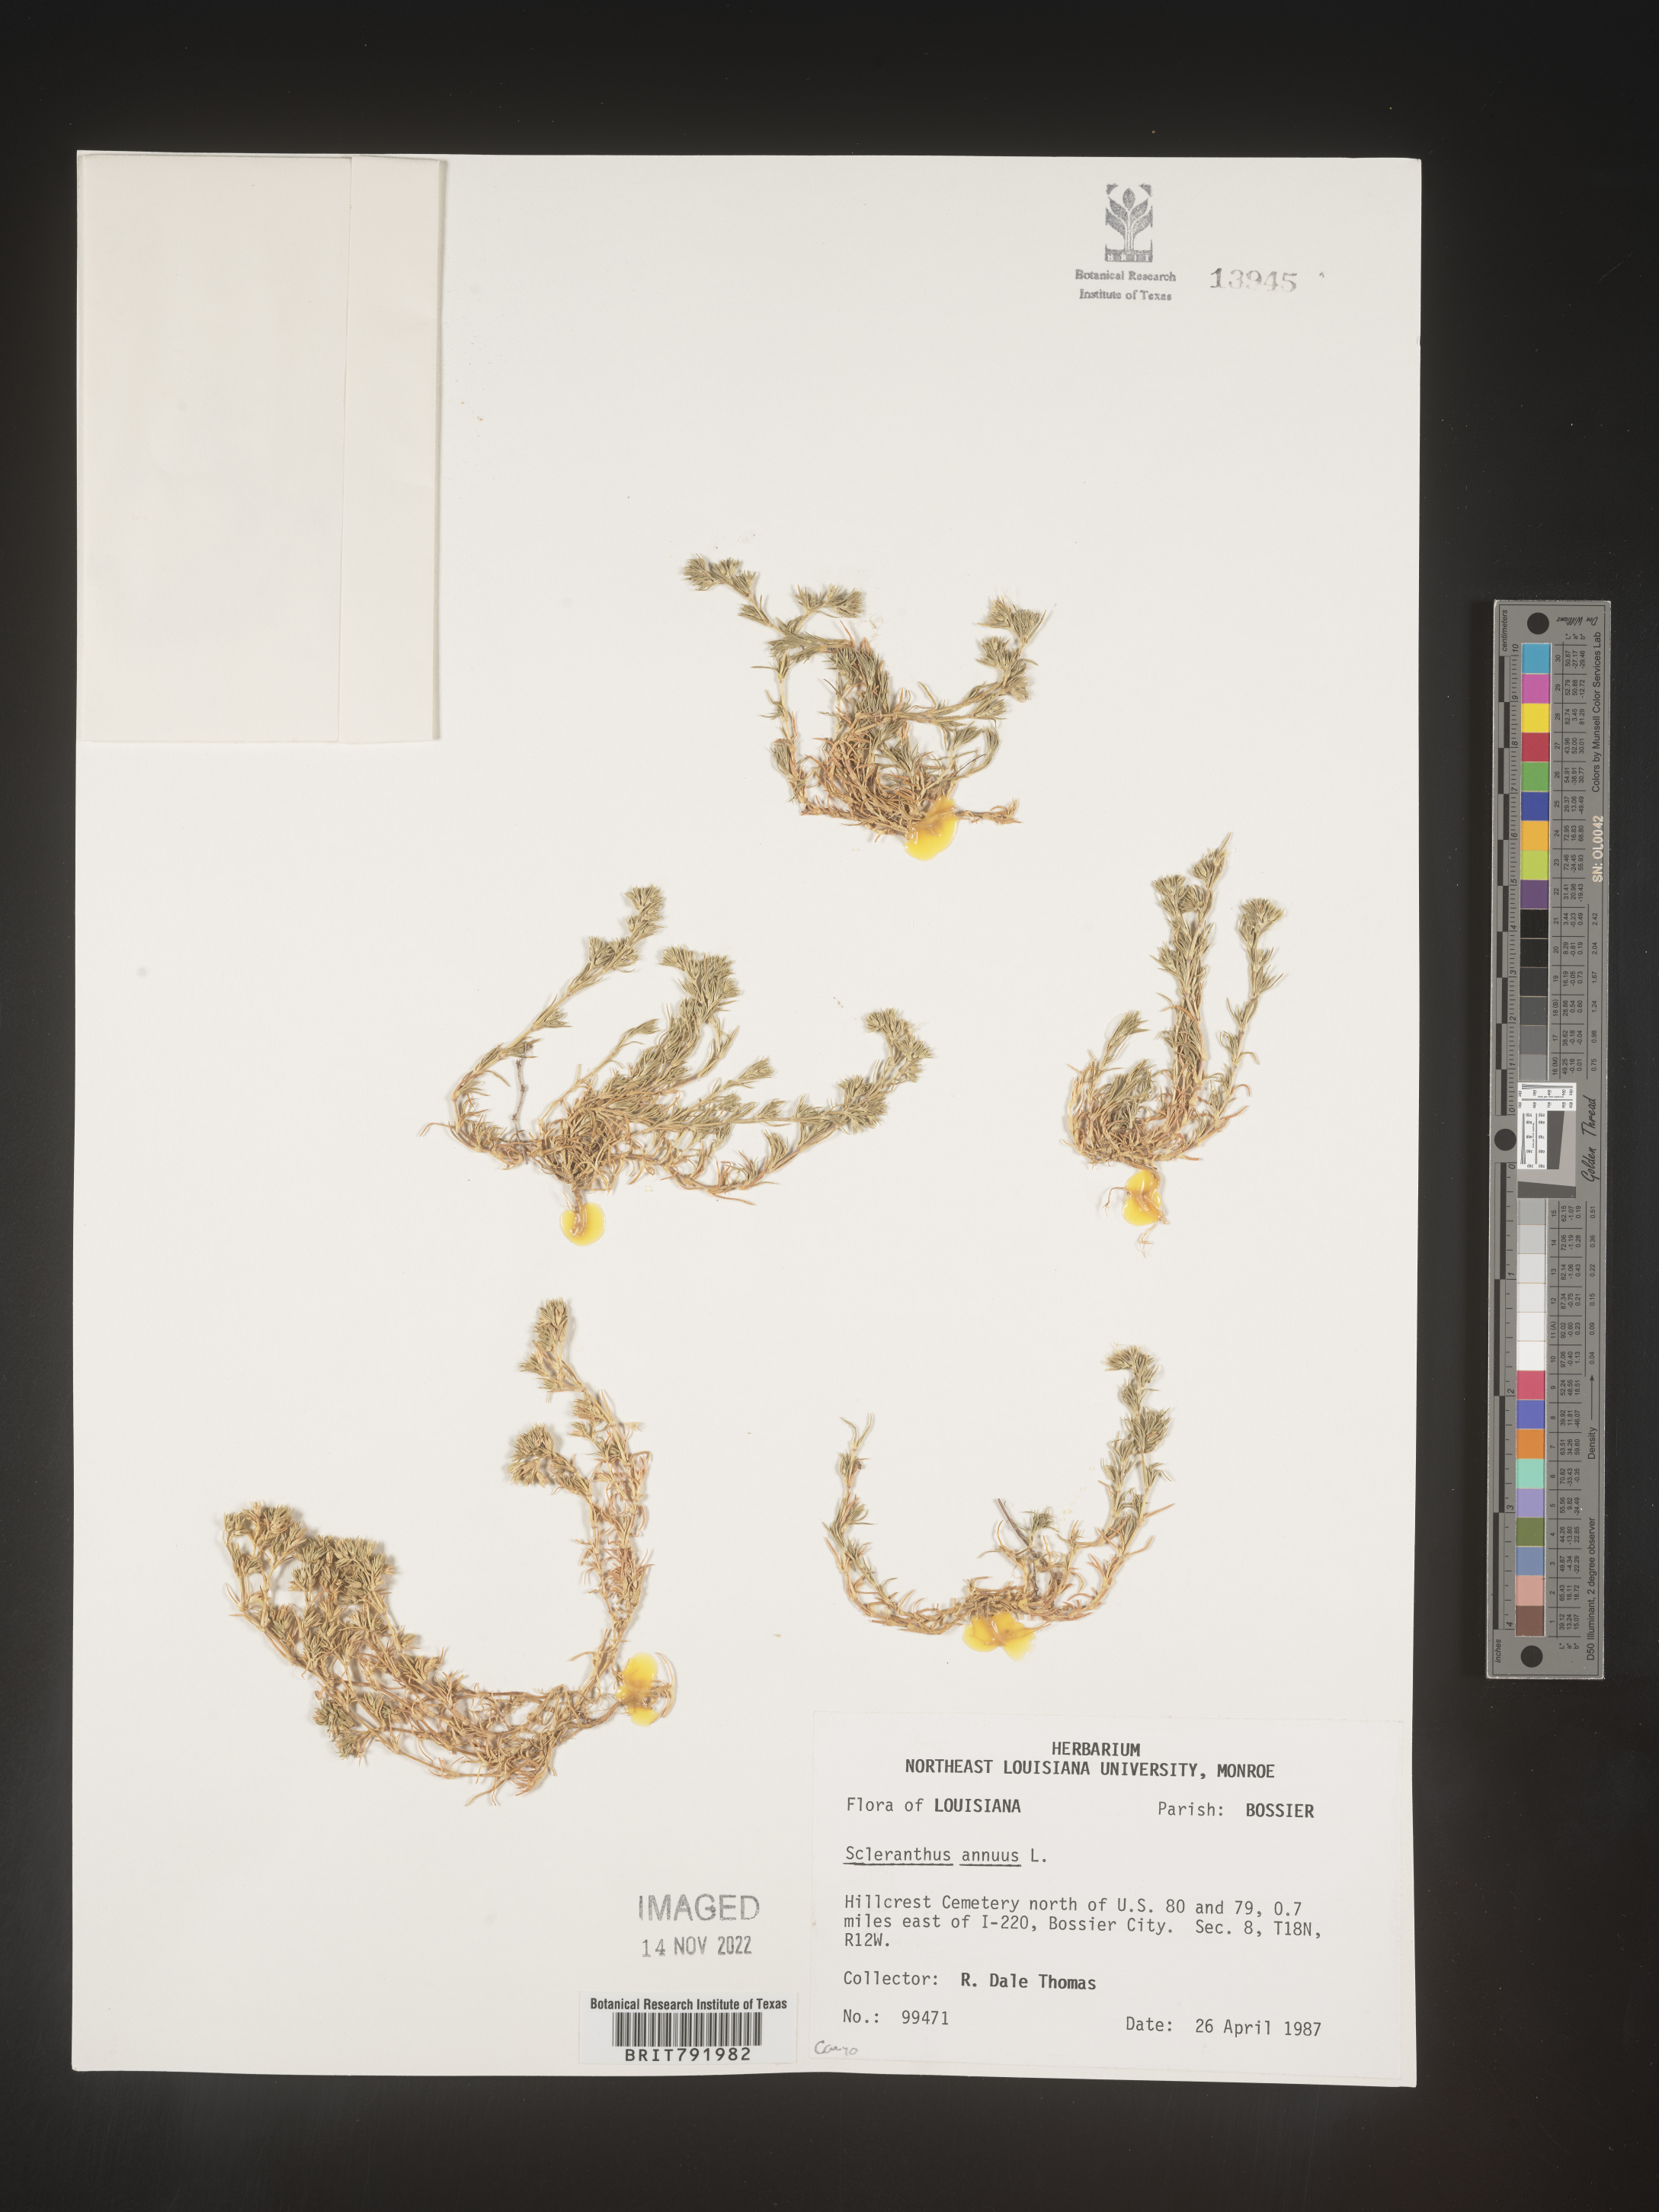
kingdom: Plantae
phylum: Tracheophyta
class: Magnoliopsida
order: Caryophyllales
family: Caryophyllaceae
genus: Scleranthus
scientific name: Scleranthus
